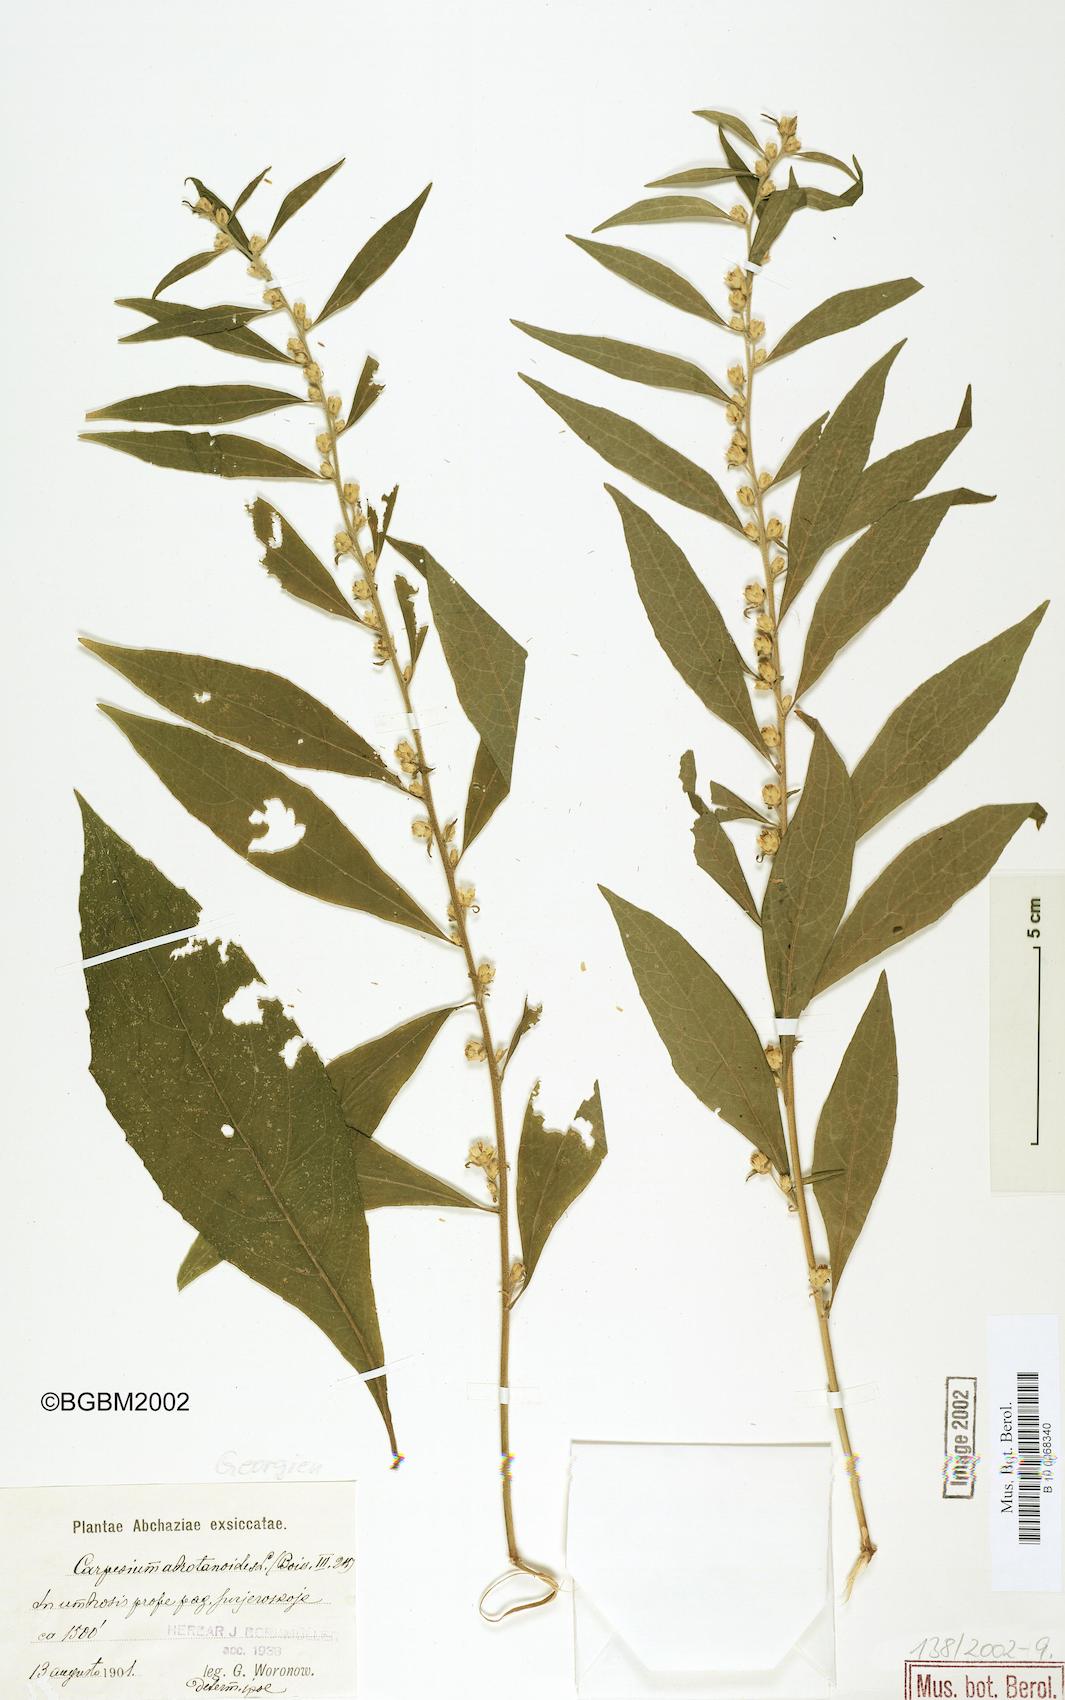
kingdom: Plantae
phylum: Tracheophyta
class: Magnoliopsida
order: Asterales
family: Asteraceae
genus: Carpesium
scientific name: Carpesium abrotanoides
